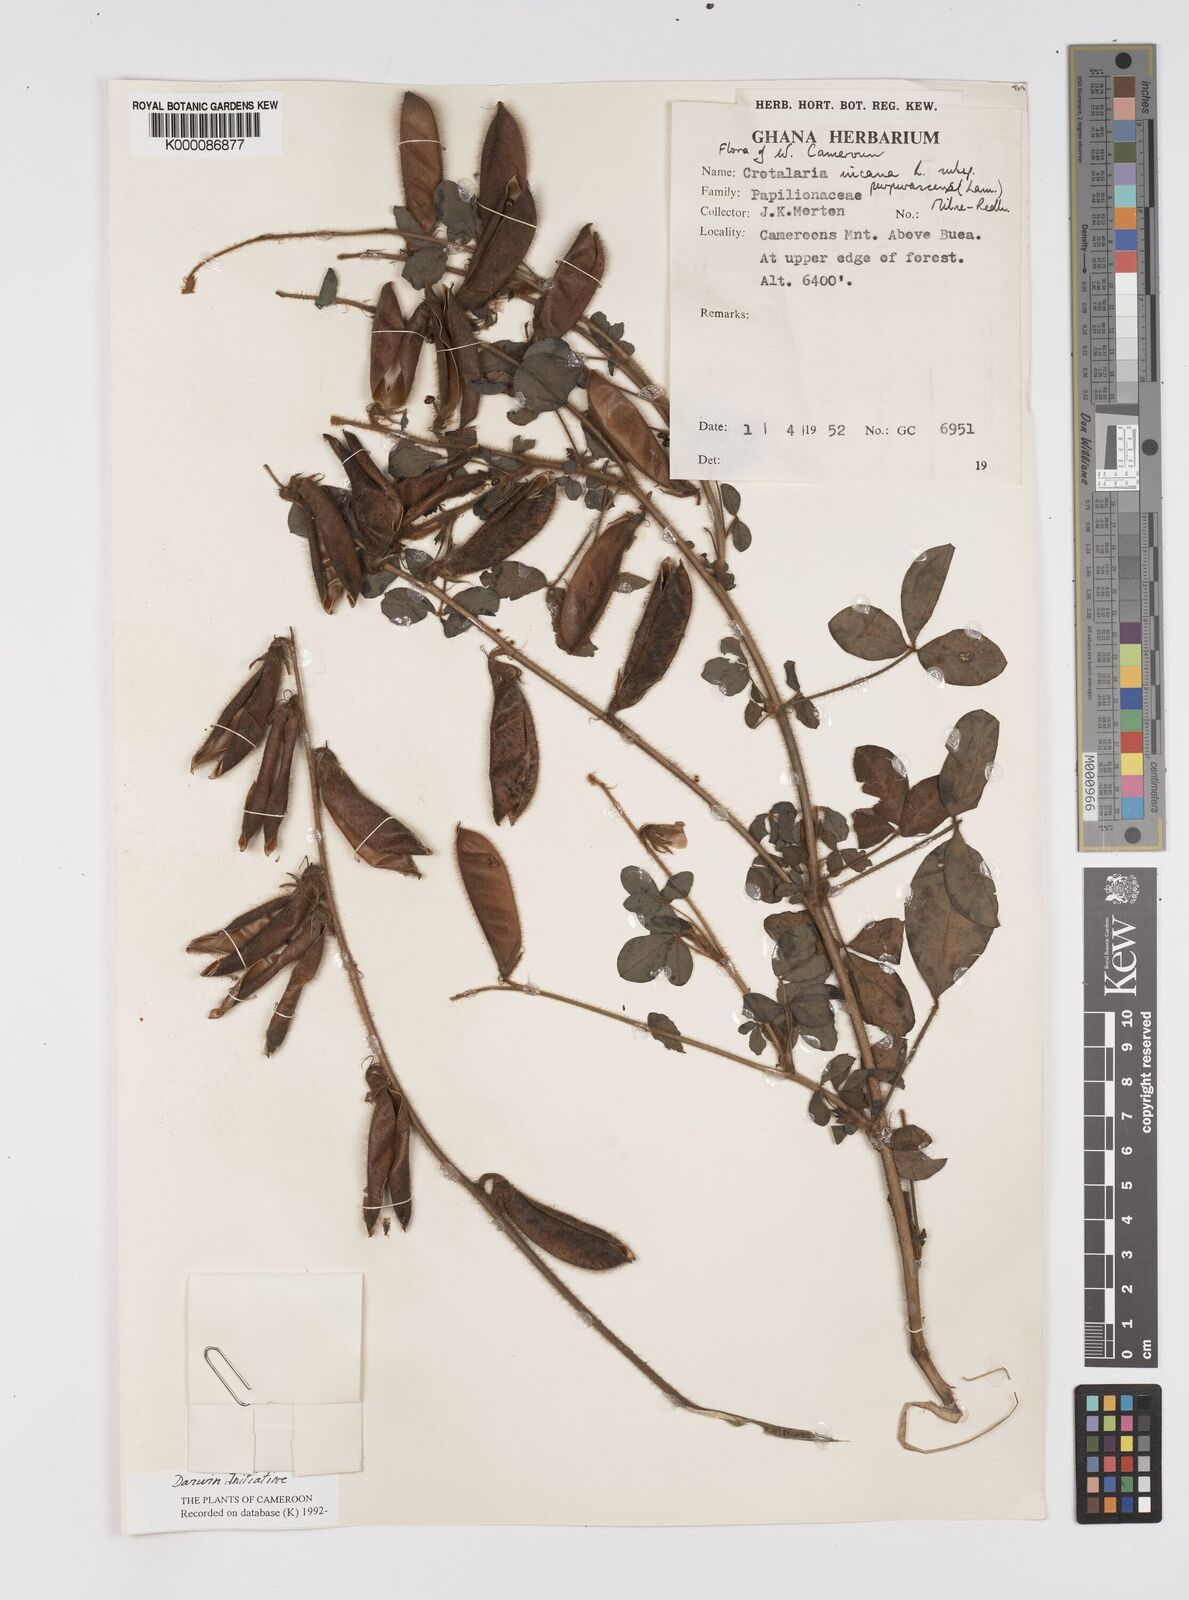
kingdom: Plantae
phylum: Tracheophyta
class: Magnoliopsida
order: Fabales
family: Fabaceae
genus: Crotalaria
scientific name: Crotalaria incana
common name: Shakeshake
